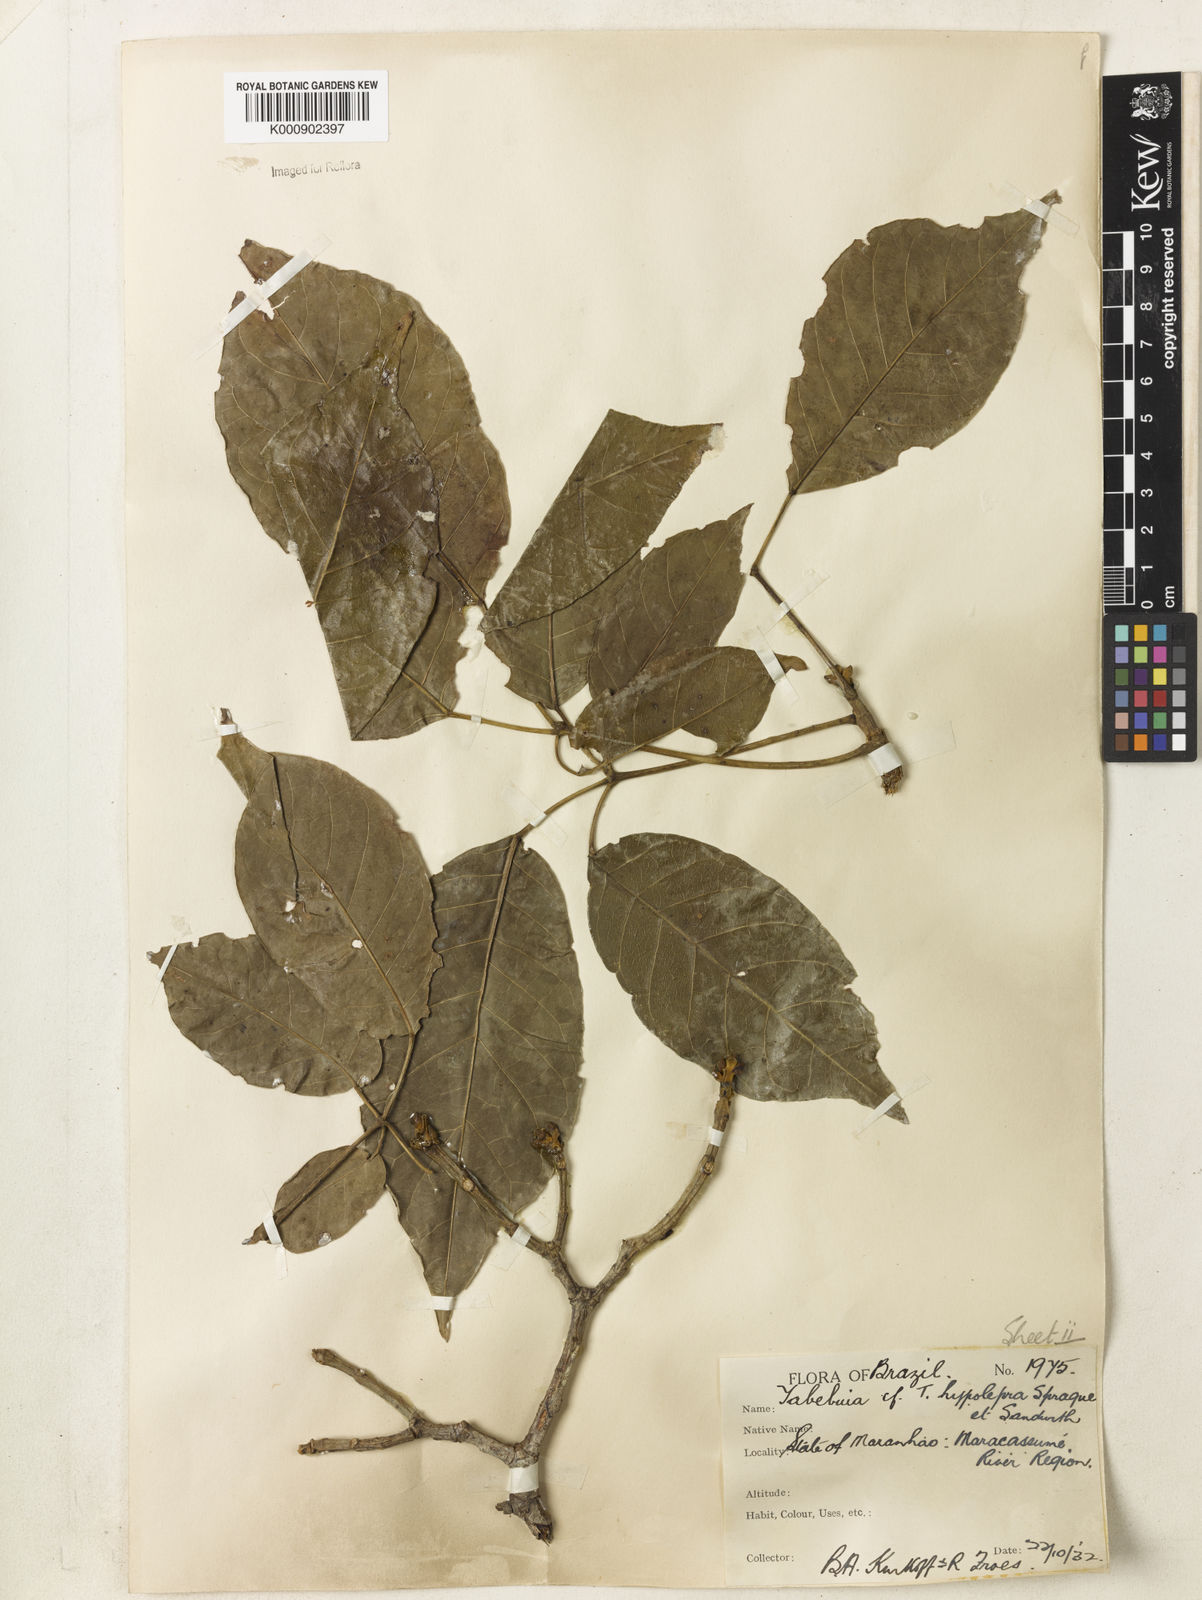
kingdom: Plantae
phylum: Tracheophyta
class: Magnoliopsida
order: Lamiales
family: Bignoniaceae
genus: Handroanthus
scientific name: Handroanthus capitatus
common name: Trumpet trees
